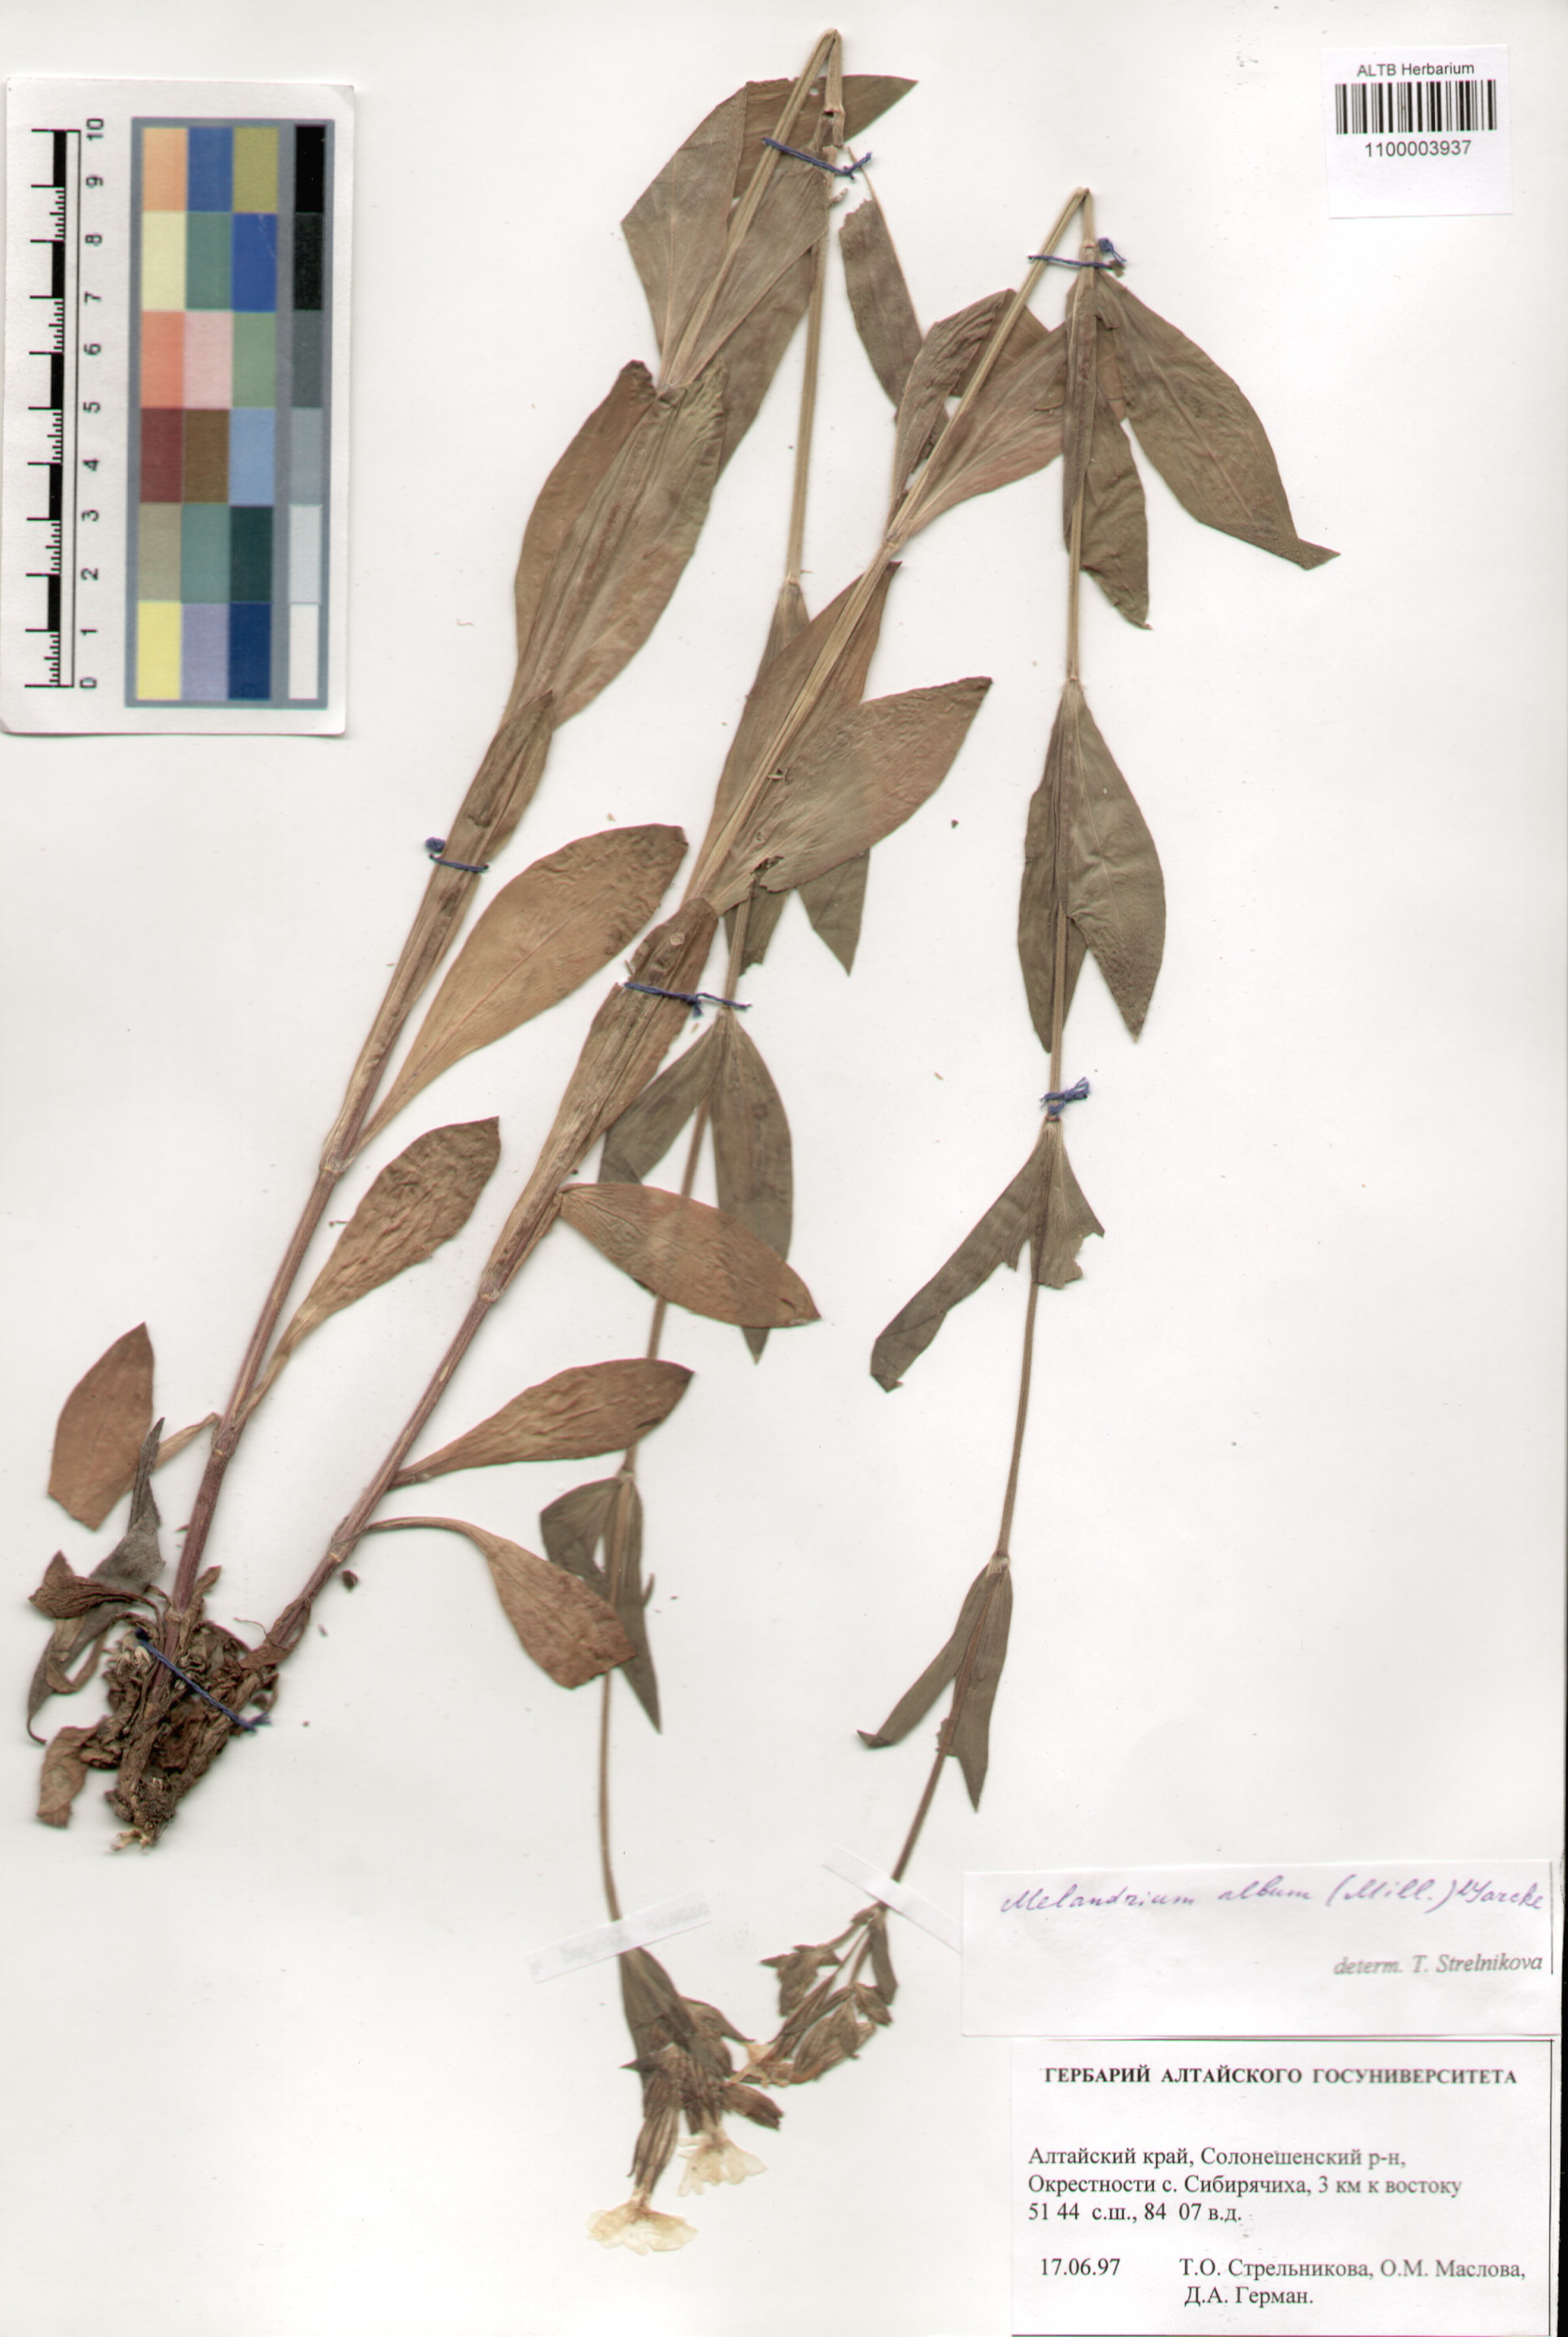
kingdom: Plantae
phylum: Tracheophyta
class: Magnoliopsida
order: Caryophyllales
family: Caryophyllaceae
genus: Silene
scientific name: Silene latifolia
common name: White campion
